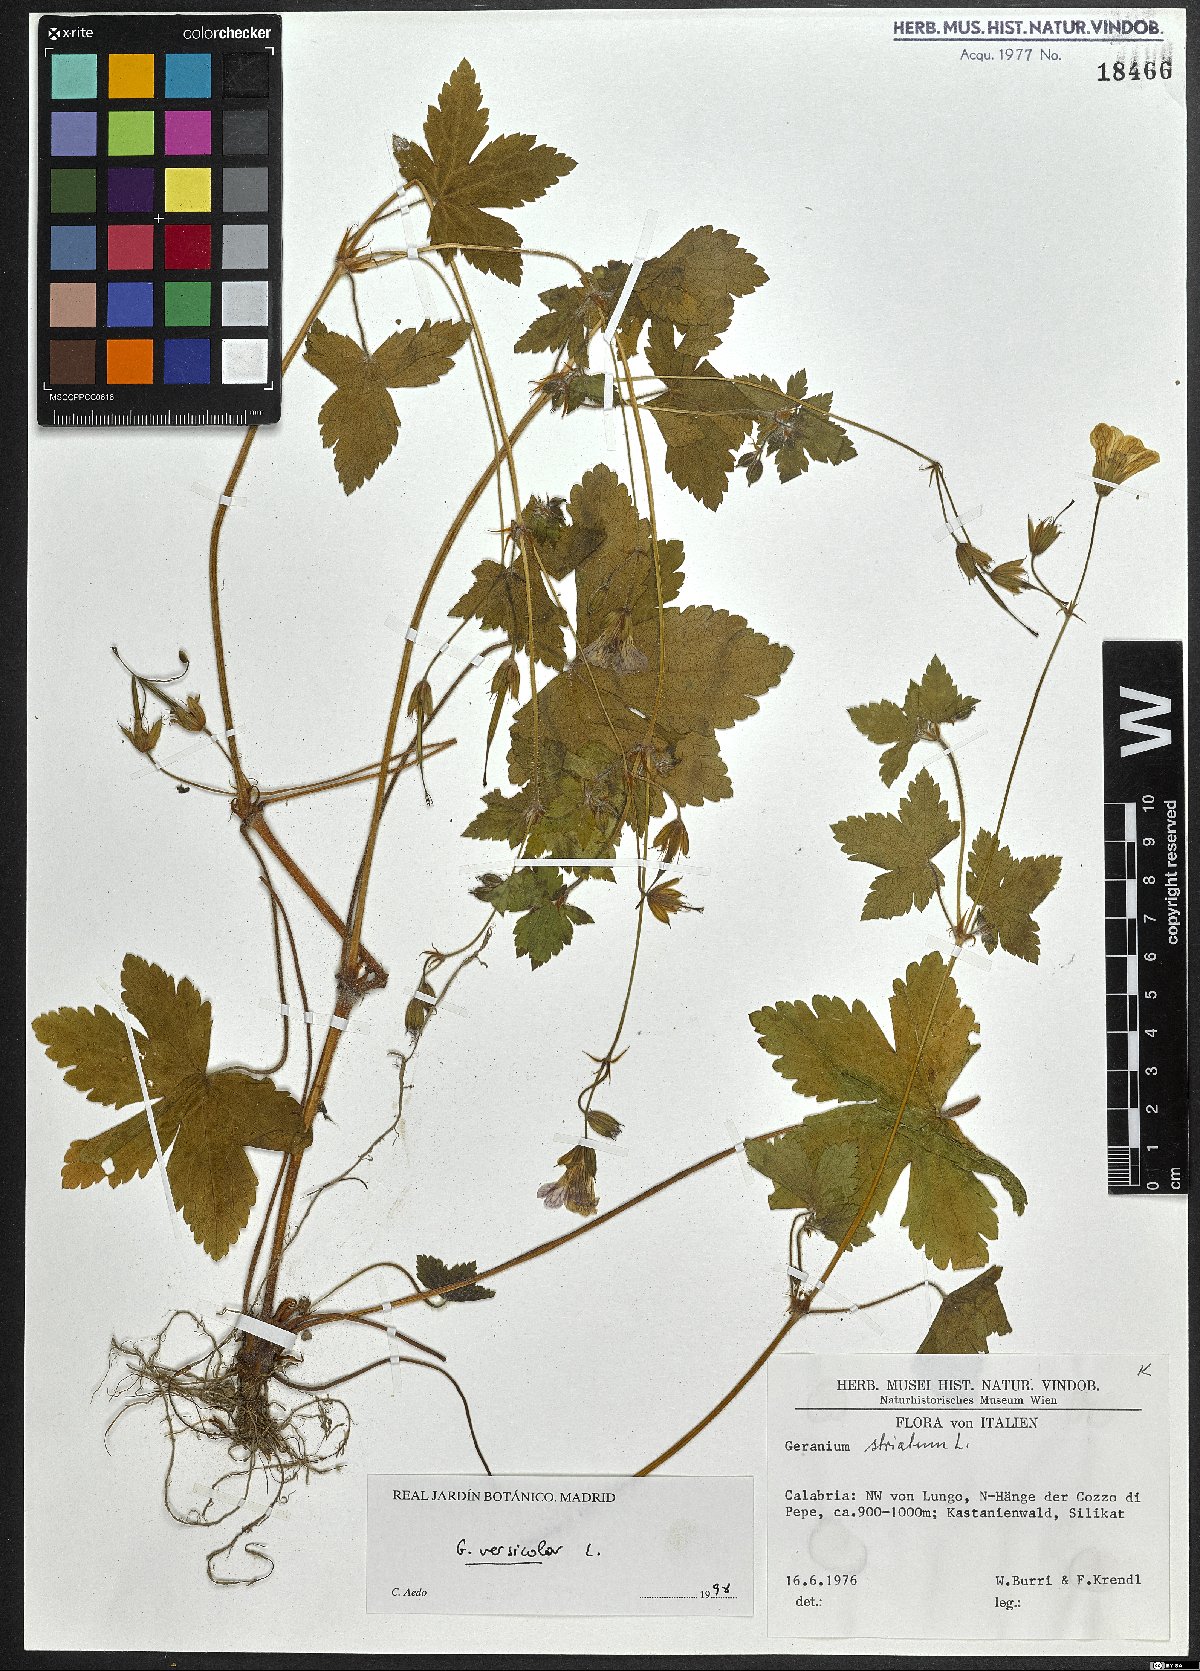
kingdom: Plantae
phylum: Tracheophyta
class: Magnoliopsida
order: Geraniales
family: Geraniaceae
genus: Geranium
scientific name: Geranium versicolor
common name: Pencilled crane's-bill
